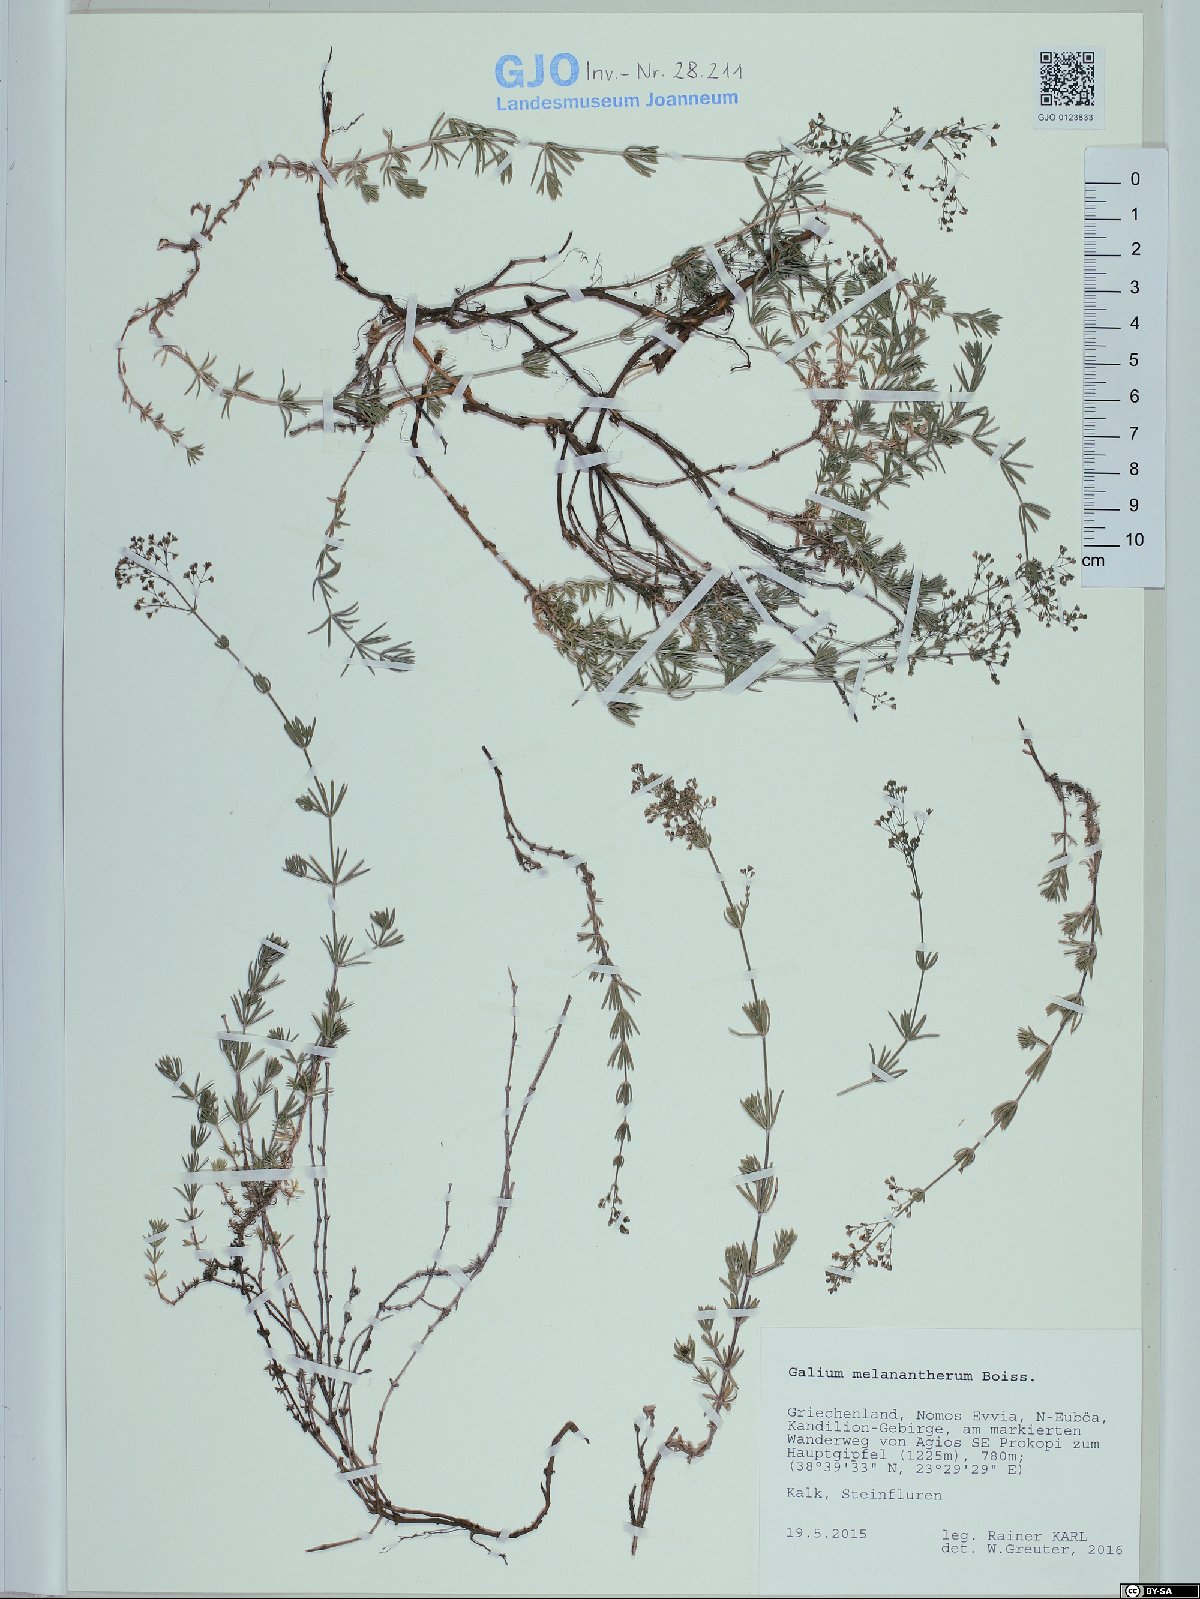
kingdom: Plantae
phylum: Tracheophyta
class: Magnoliopsida
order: Gentianales
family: Rubiaceae
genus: Galium
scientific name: Galium melanantherum
